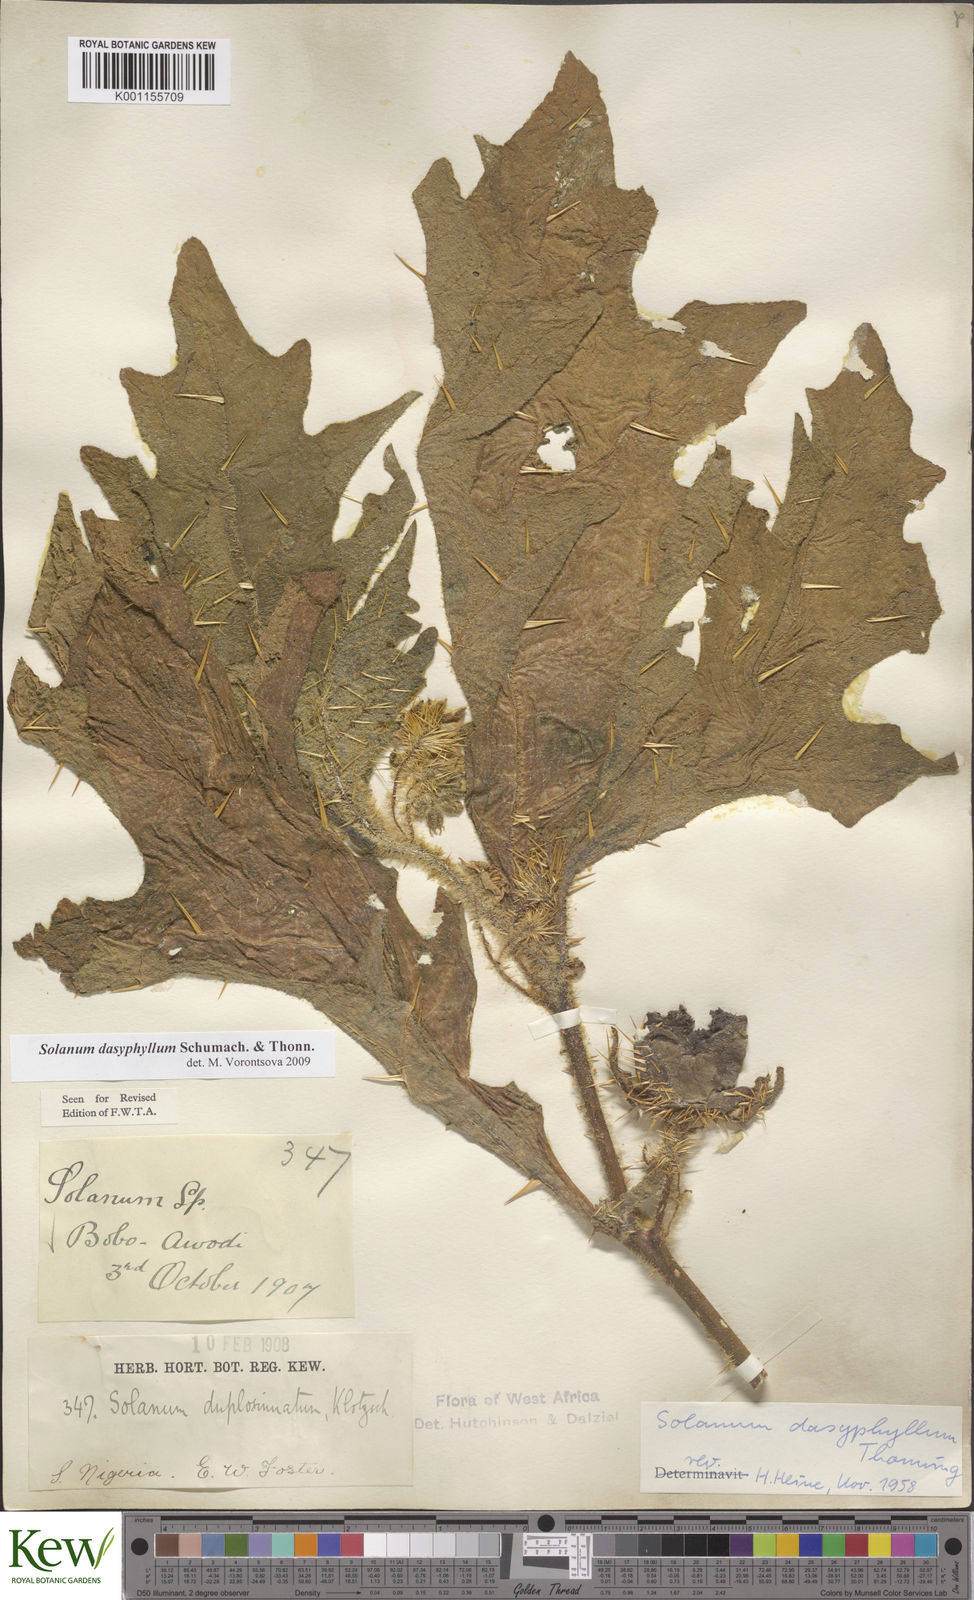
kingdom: Plantae
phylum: Tracheophyta
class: Magnoliopsida
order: Solanales
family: Solanaceae
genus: Solanum
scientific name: Solanum dasyphyllum
